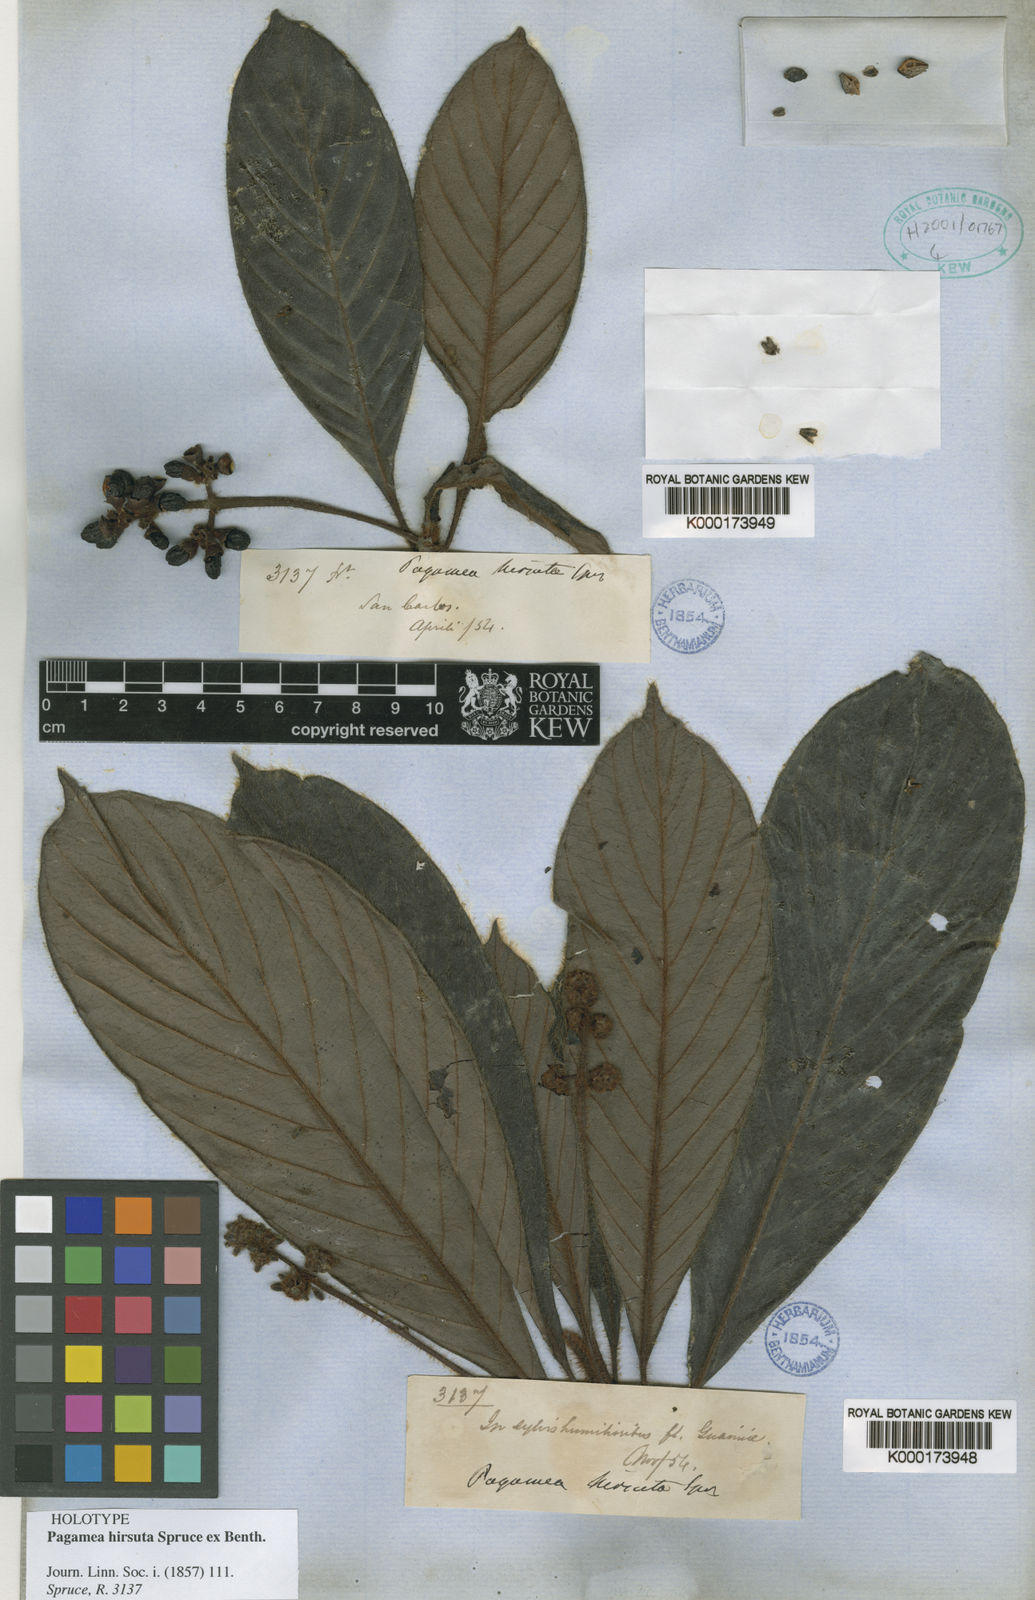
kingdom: Plantae
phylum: Tracheophyta
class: Magnoliopsida
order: Gentianales
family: Rubiaceae
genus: Pagamea
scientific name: Pagamea hirsuta
